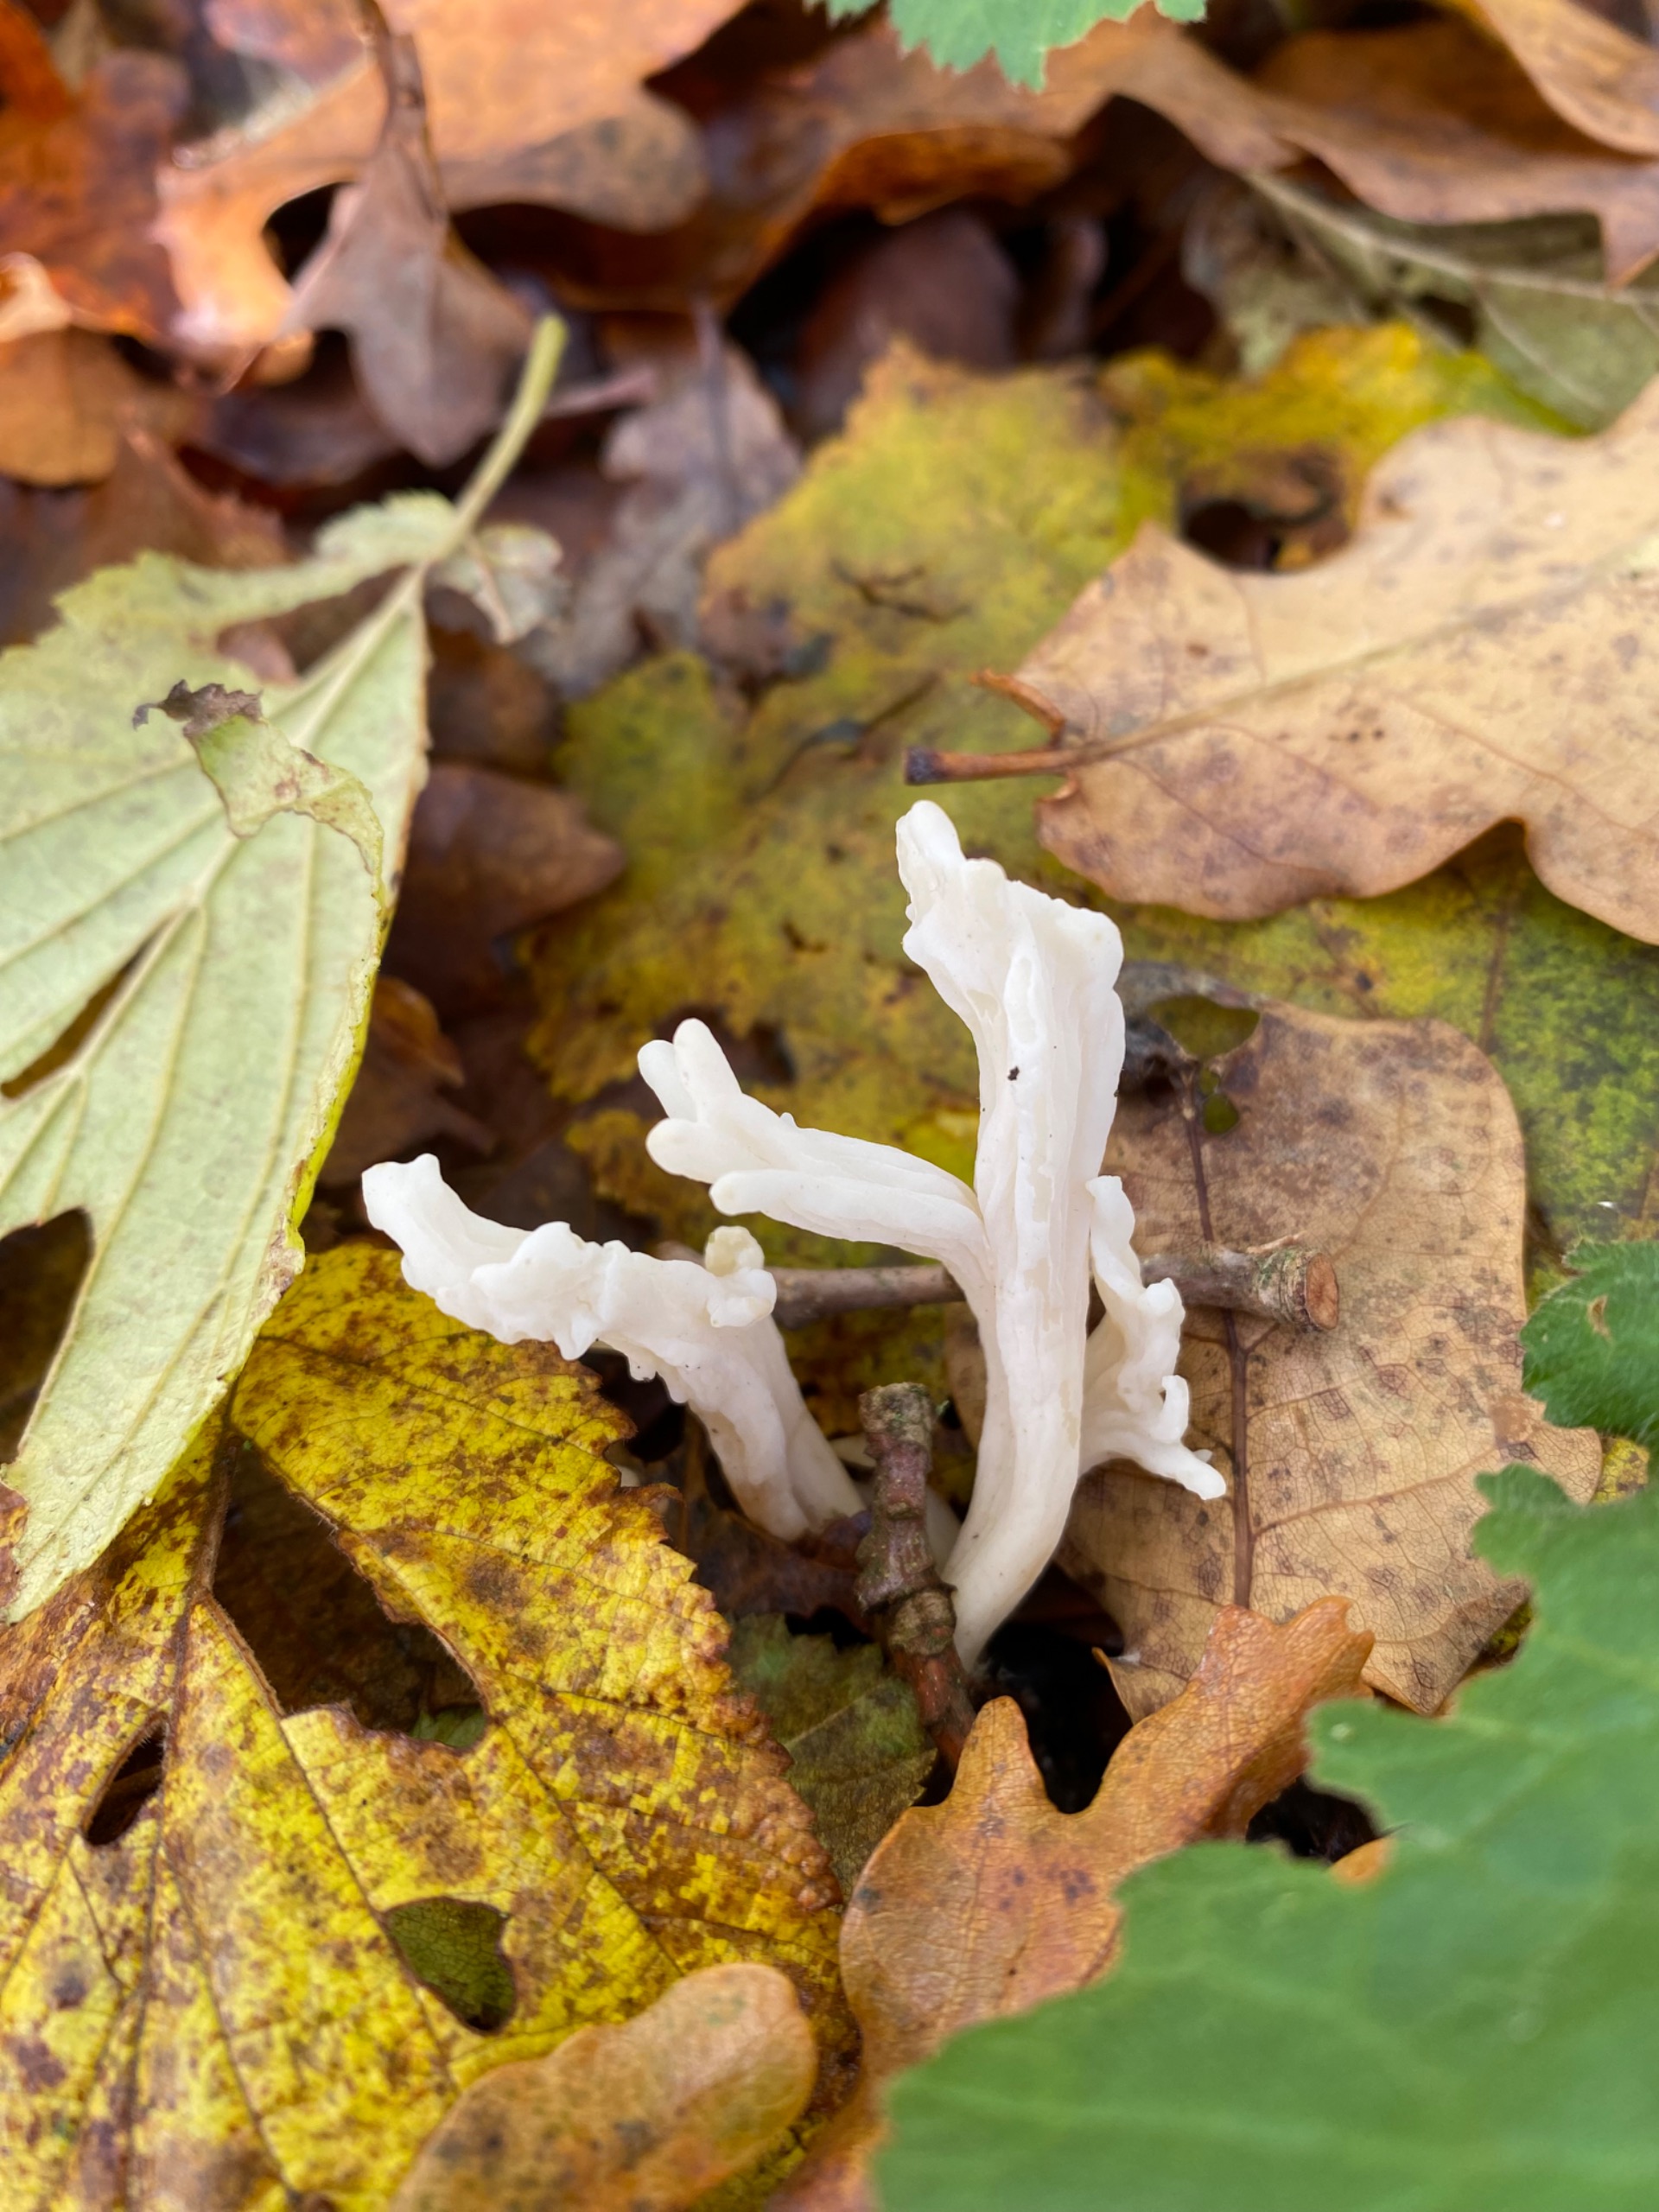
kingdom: Fungi
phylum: Basidiomycota
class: Agaricomycetes
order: Cantharellales
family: Hydnaceae
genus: Clavulina
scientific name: Clavulina rugosa
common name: Rynket troldkølle
